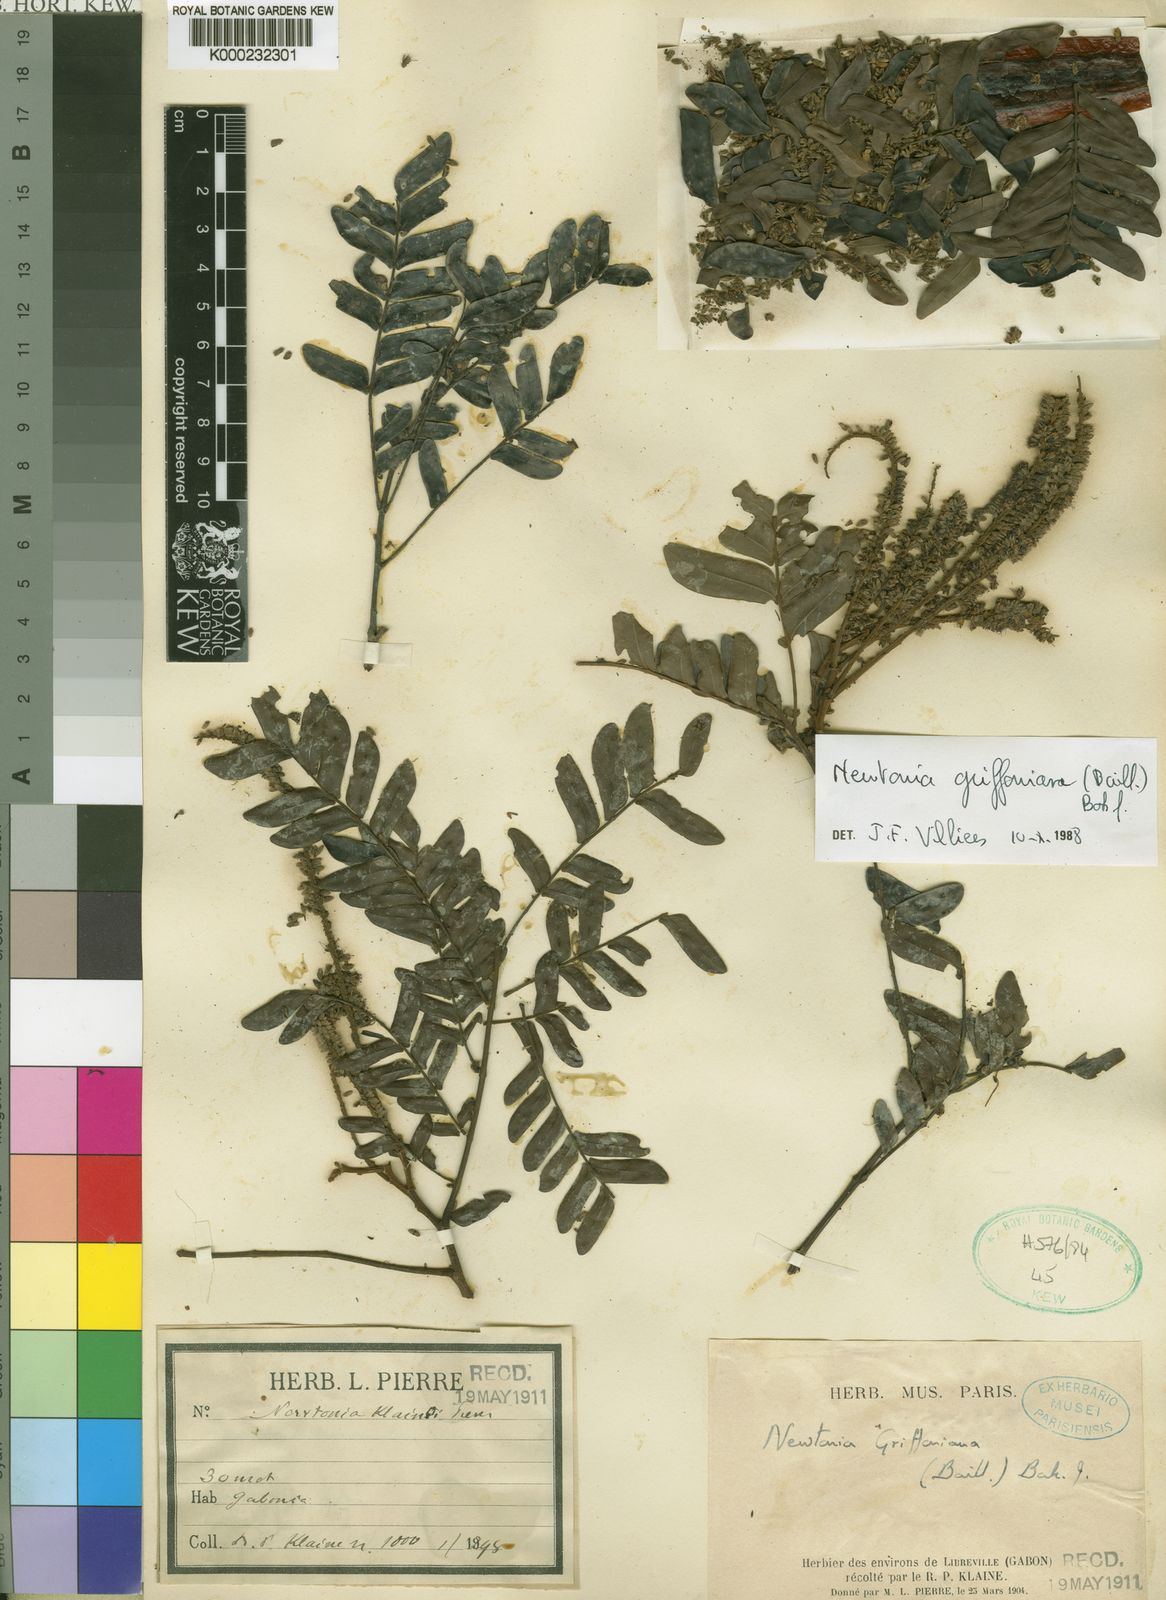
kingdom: Plantae
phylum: Tracheophyta
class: Magnoliopsida
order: Fabales
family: Fabaceae
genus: Newtonia
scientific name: Newtonia griffoniana
